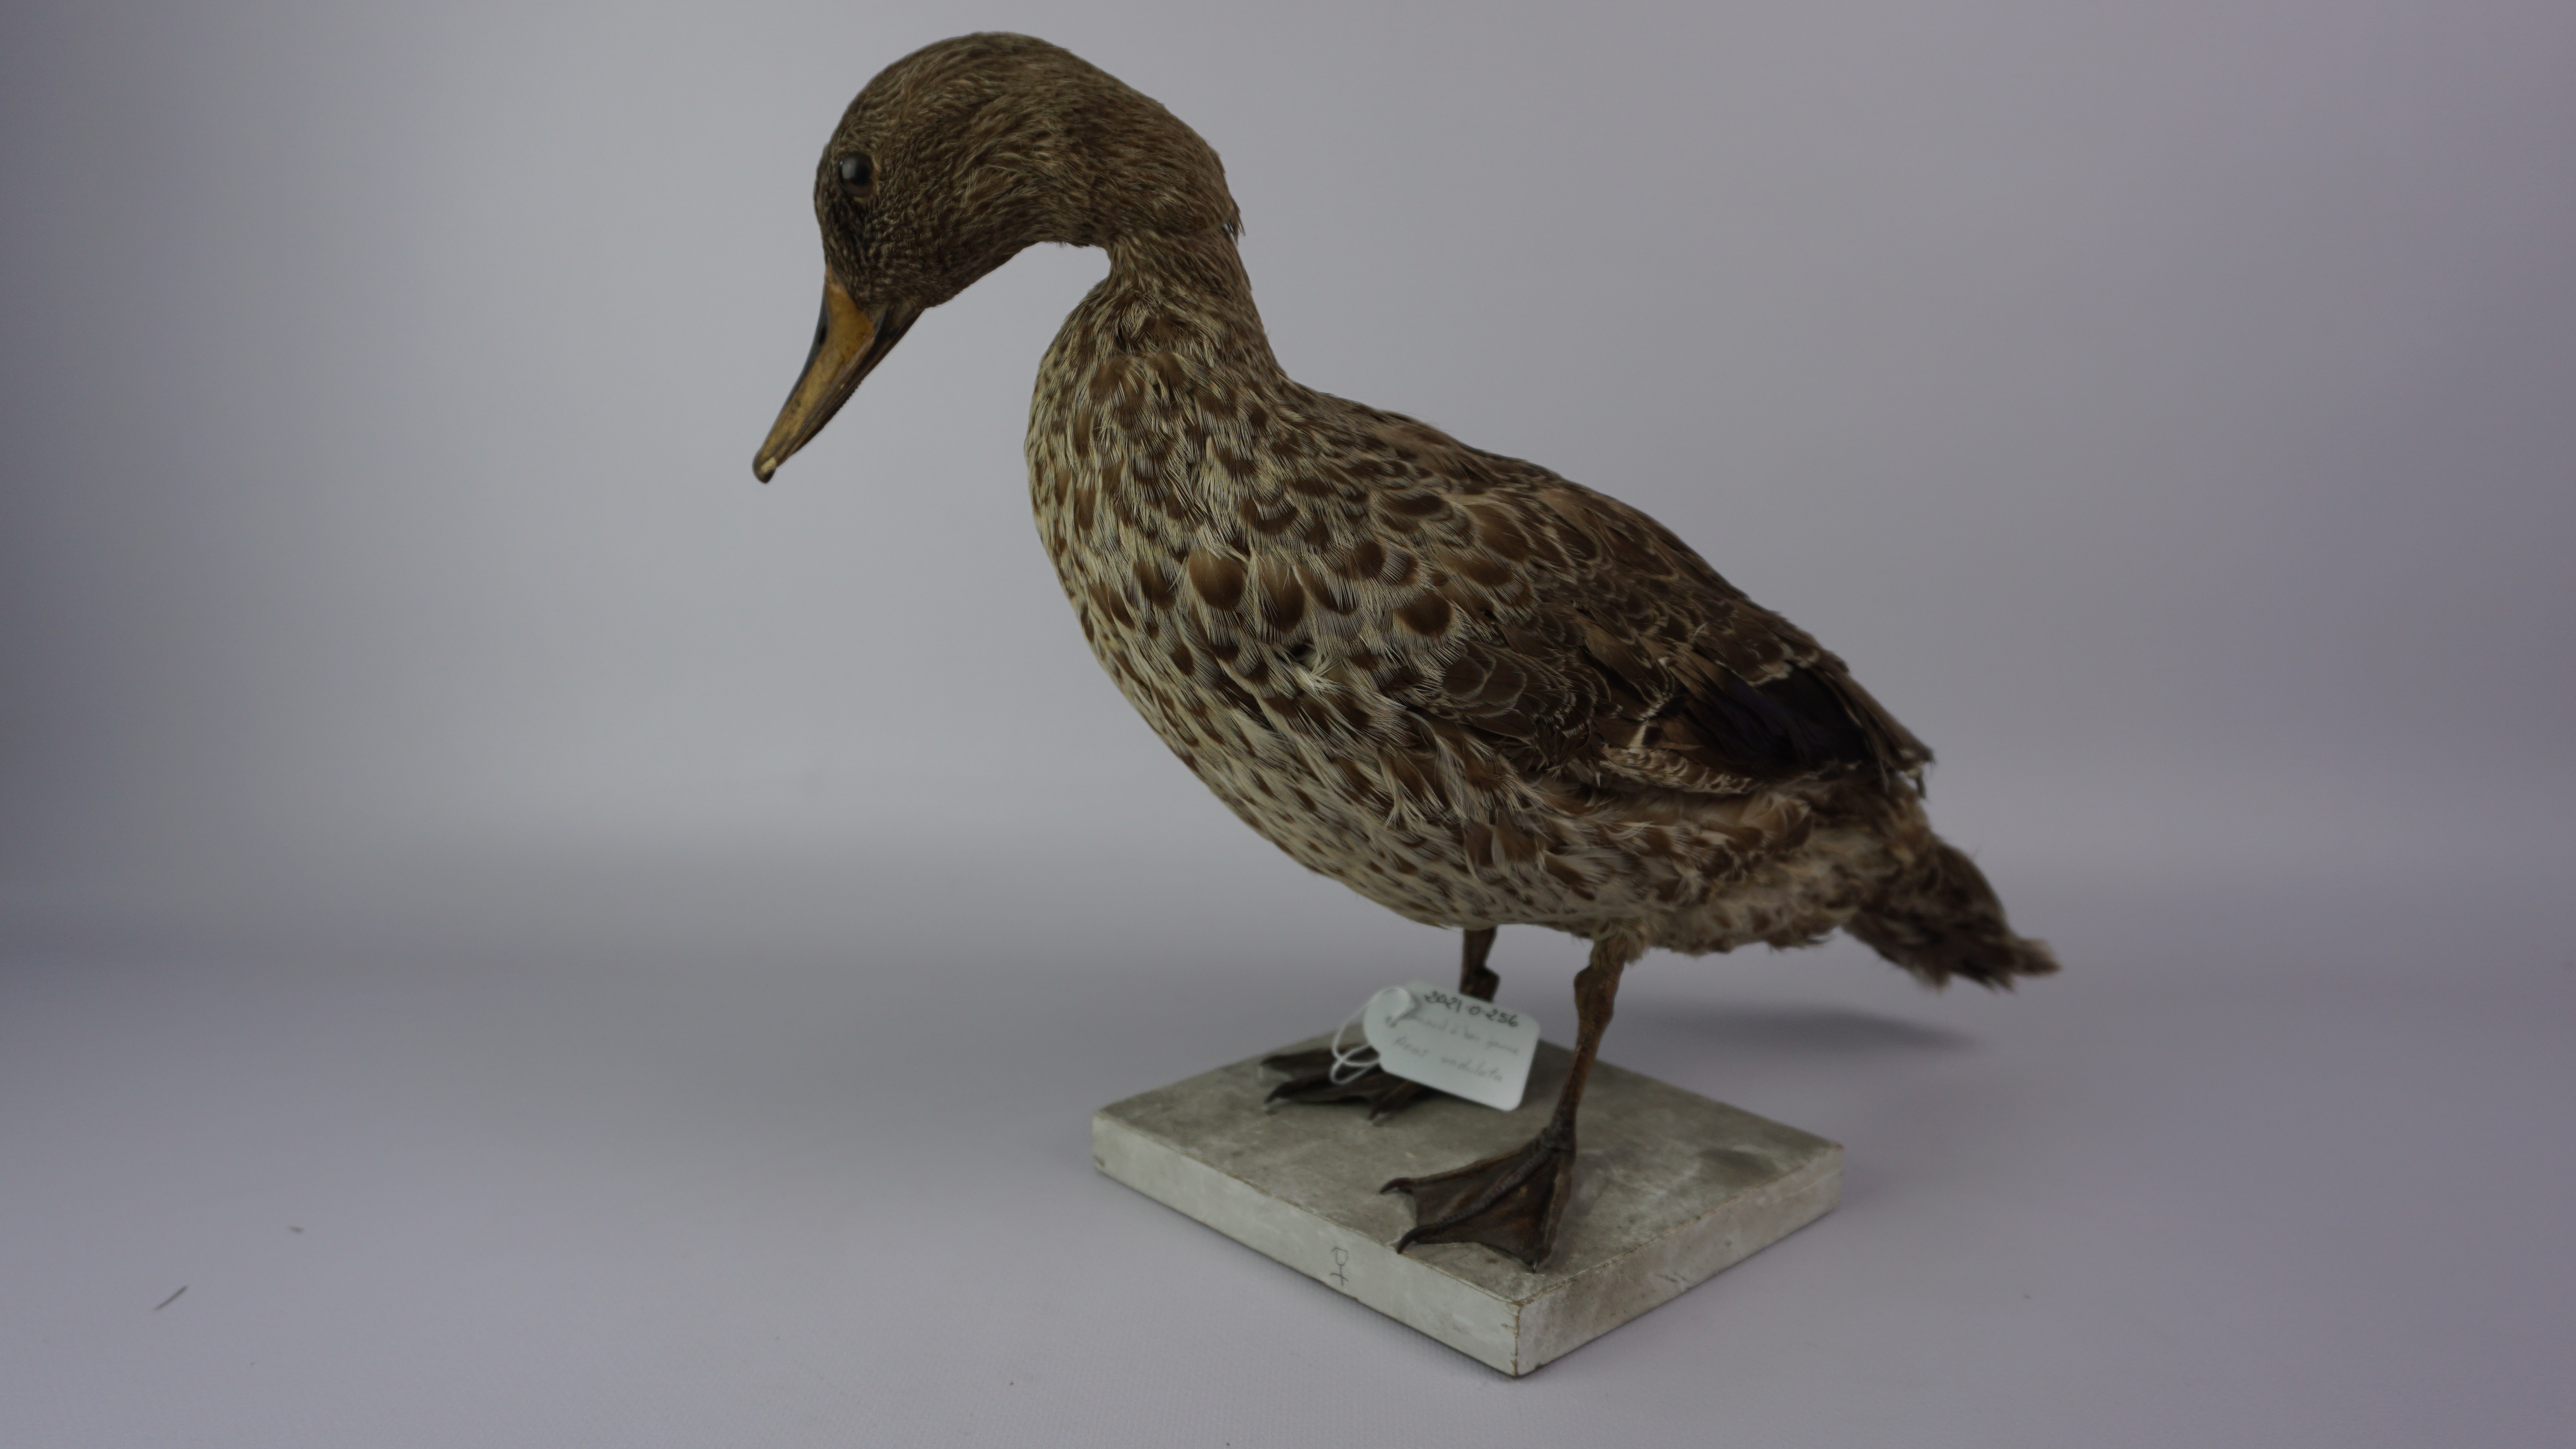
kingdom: Animalia
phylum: Chordata
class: Aves
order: Anseriformes
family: Anatidae
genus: Anas
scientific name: Anas undulata
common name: Yellow-billed duck
